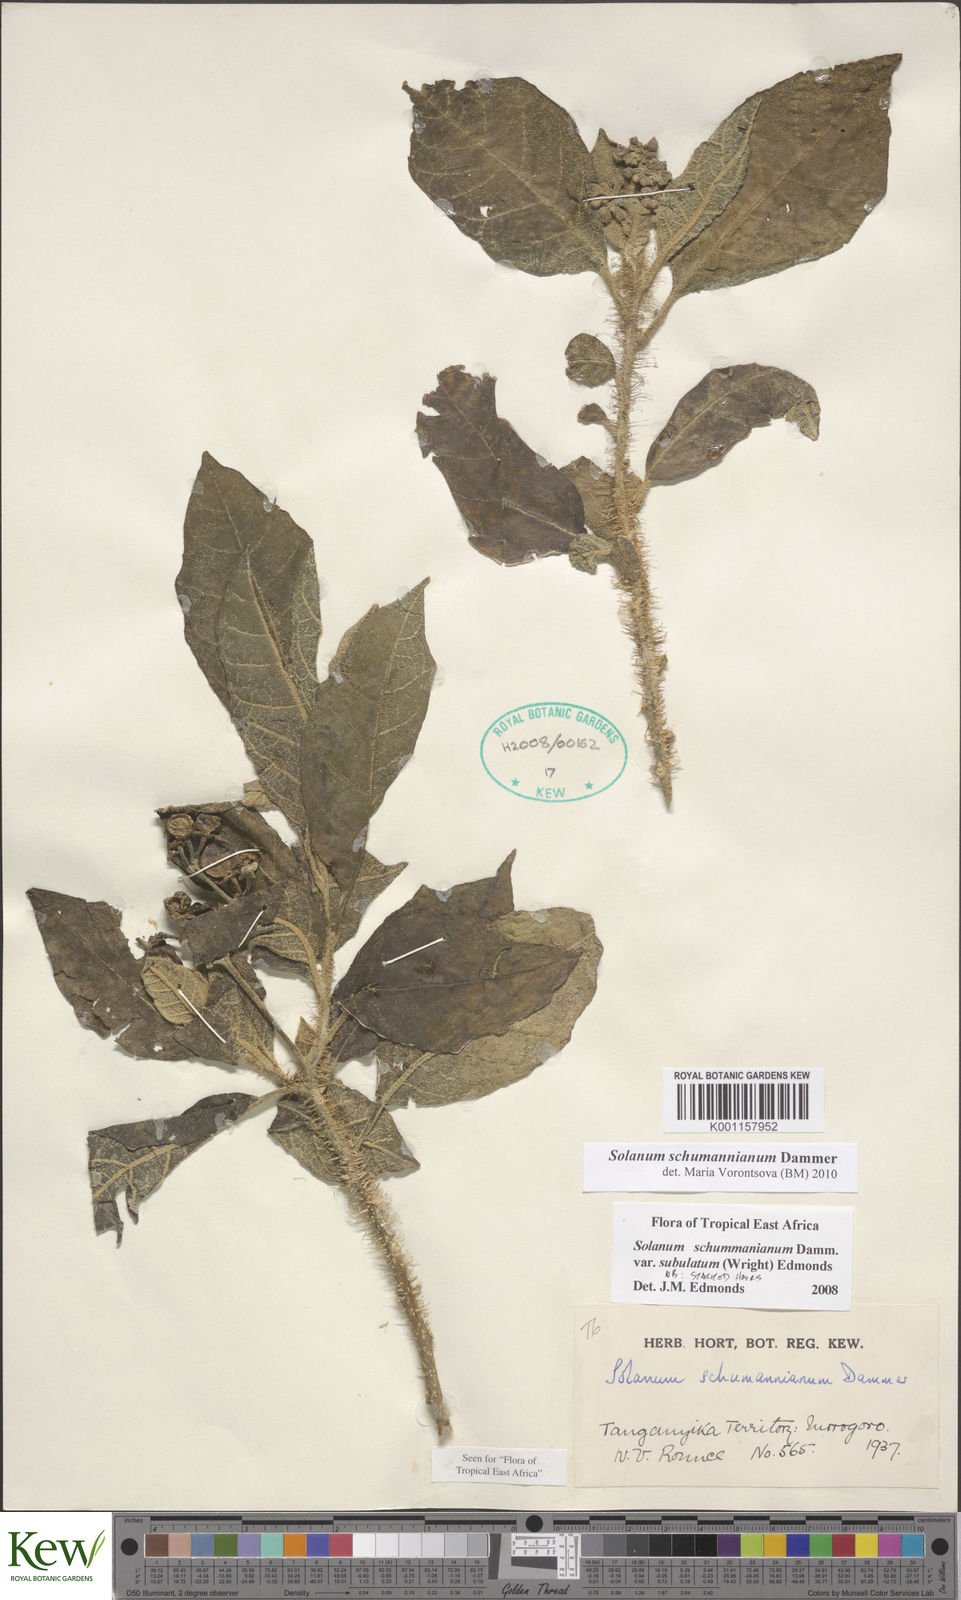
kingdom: Plantae
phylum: Tracheophyta
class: Magnoliopsida
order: Solanales
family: Solanaceae
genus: Solanum
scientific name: Solanum schumannianum
